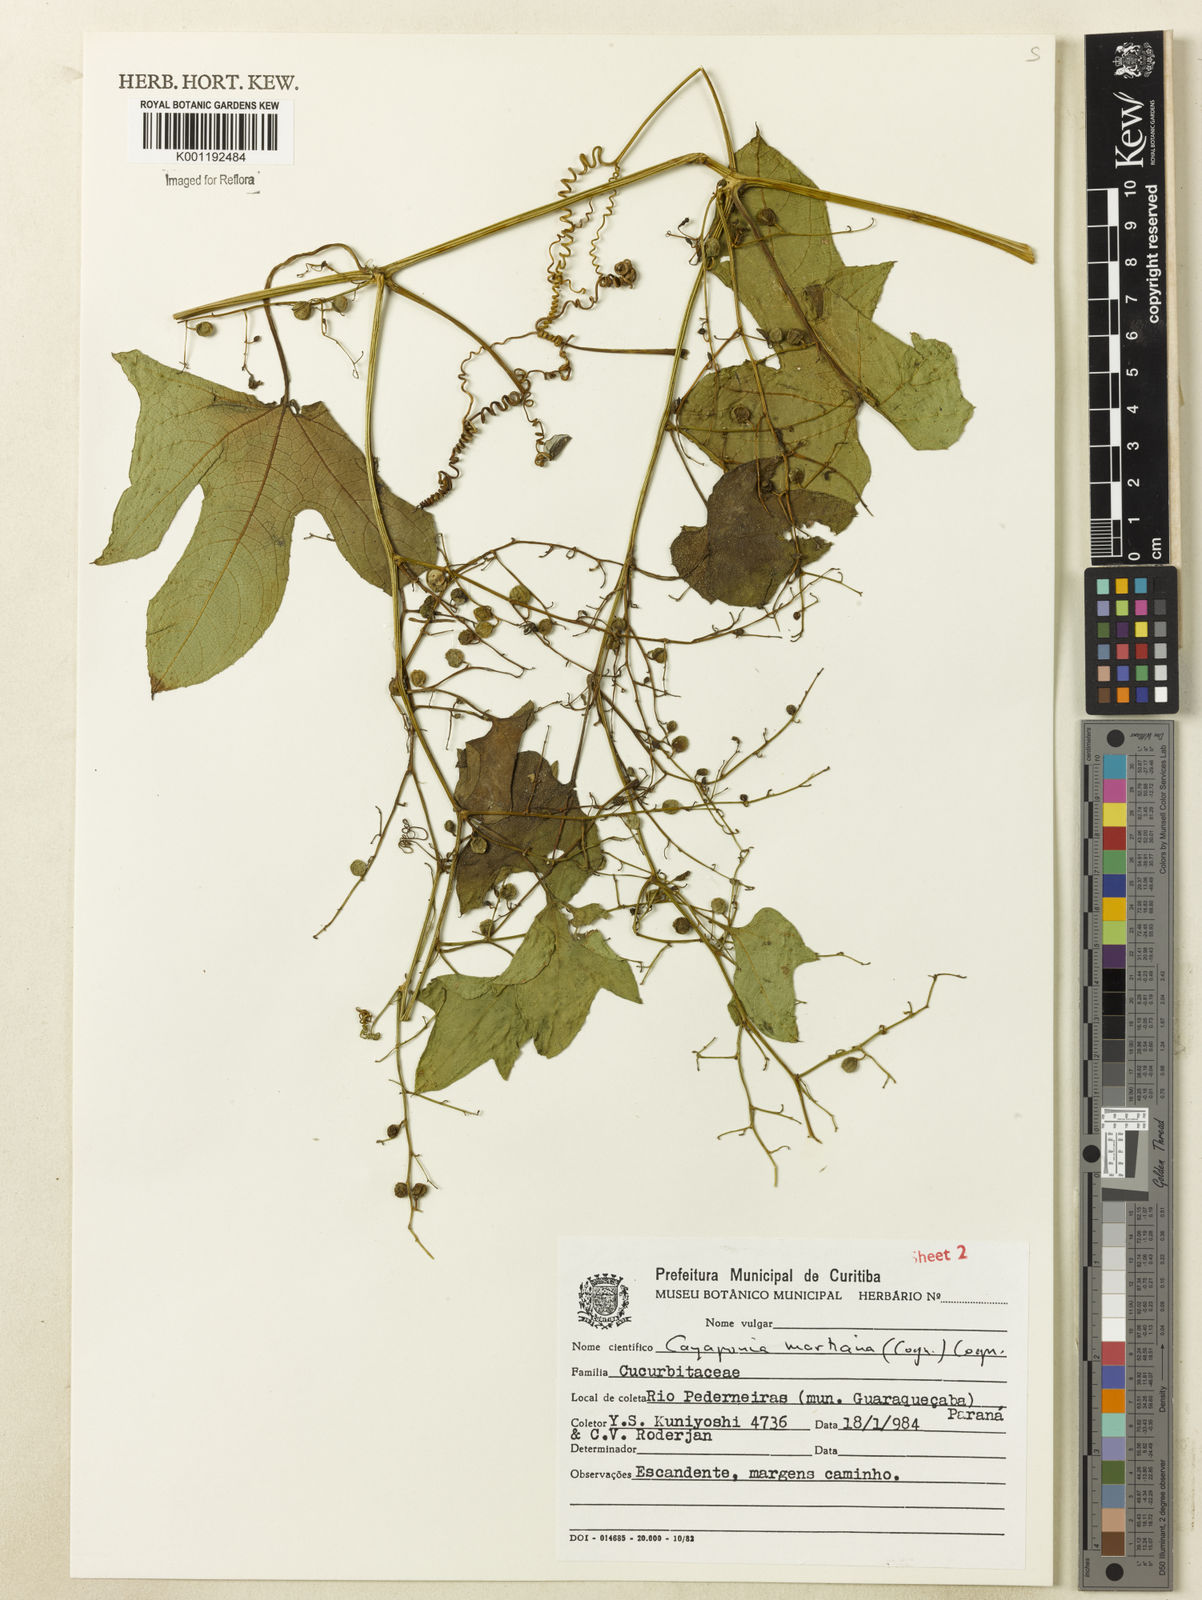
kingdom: Plantae
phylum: Tracheophyta
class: Magnoliopsida
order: Cucurbitales
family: Cucurbitaceae
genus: Cayaponia
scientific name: Cayaponia martiana
